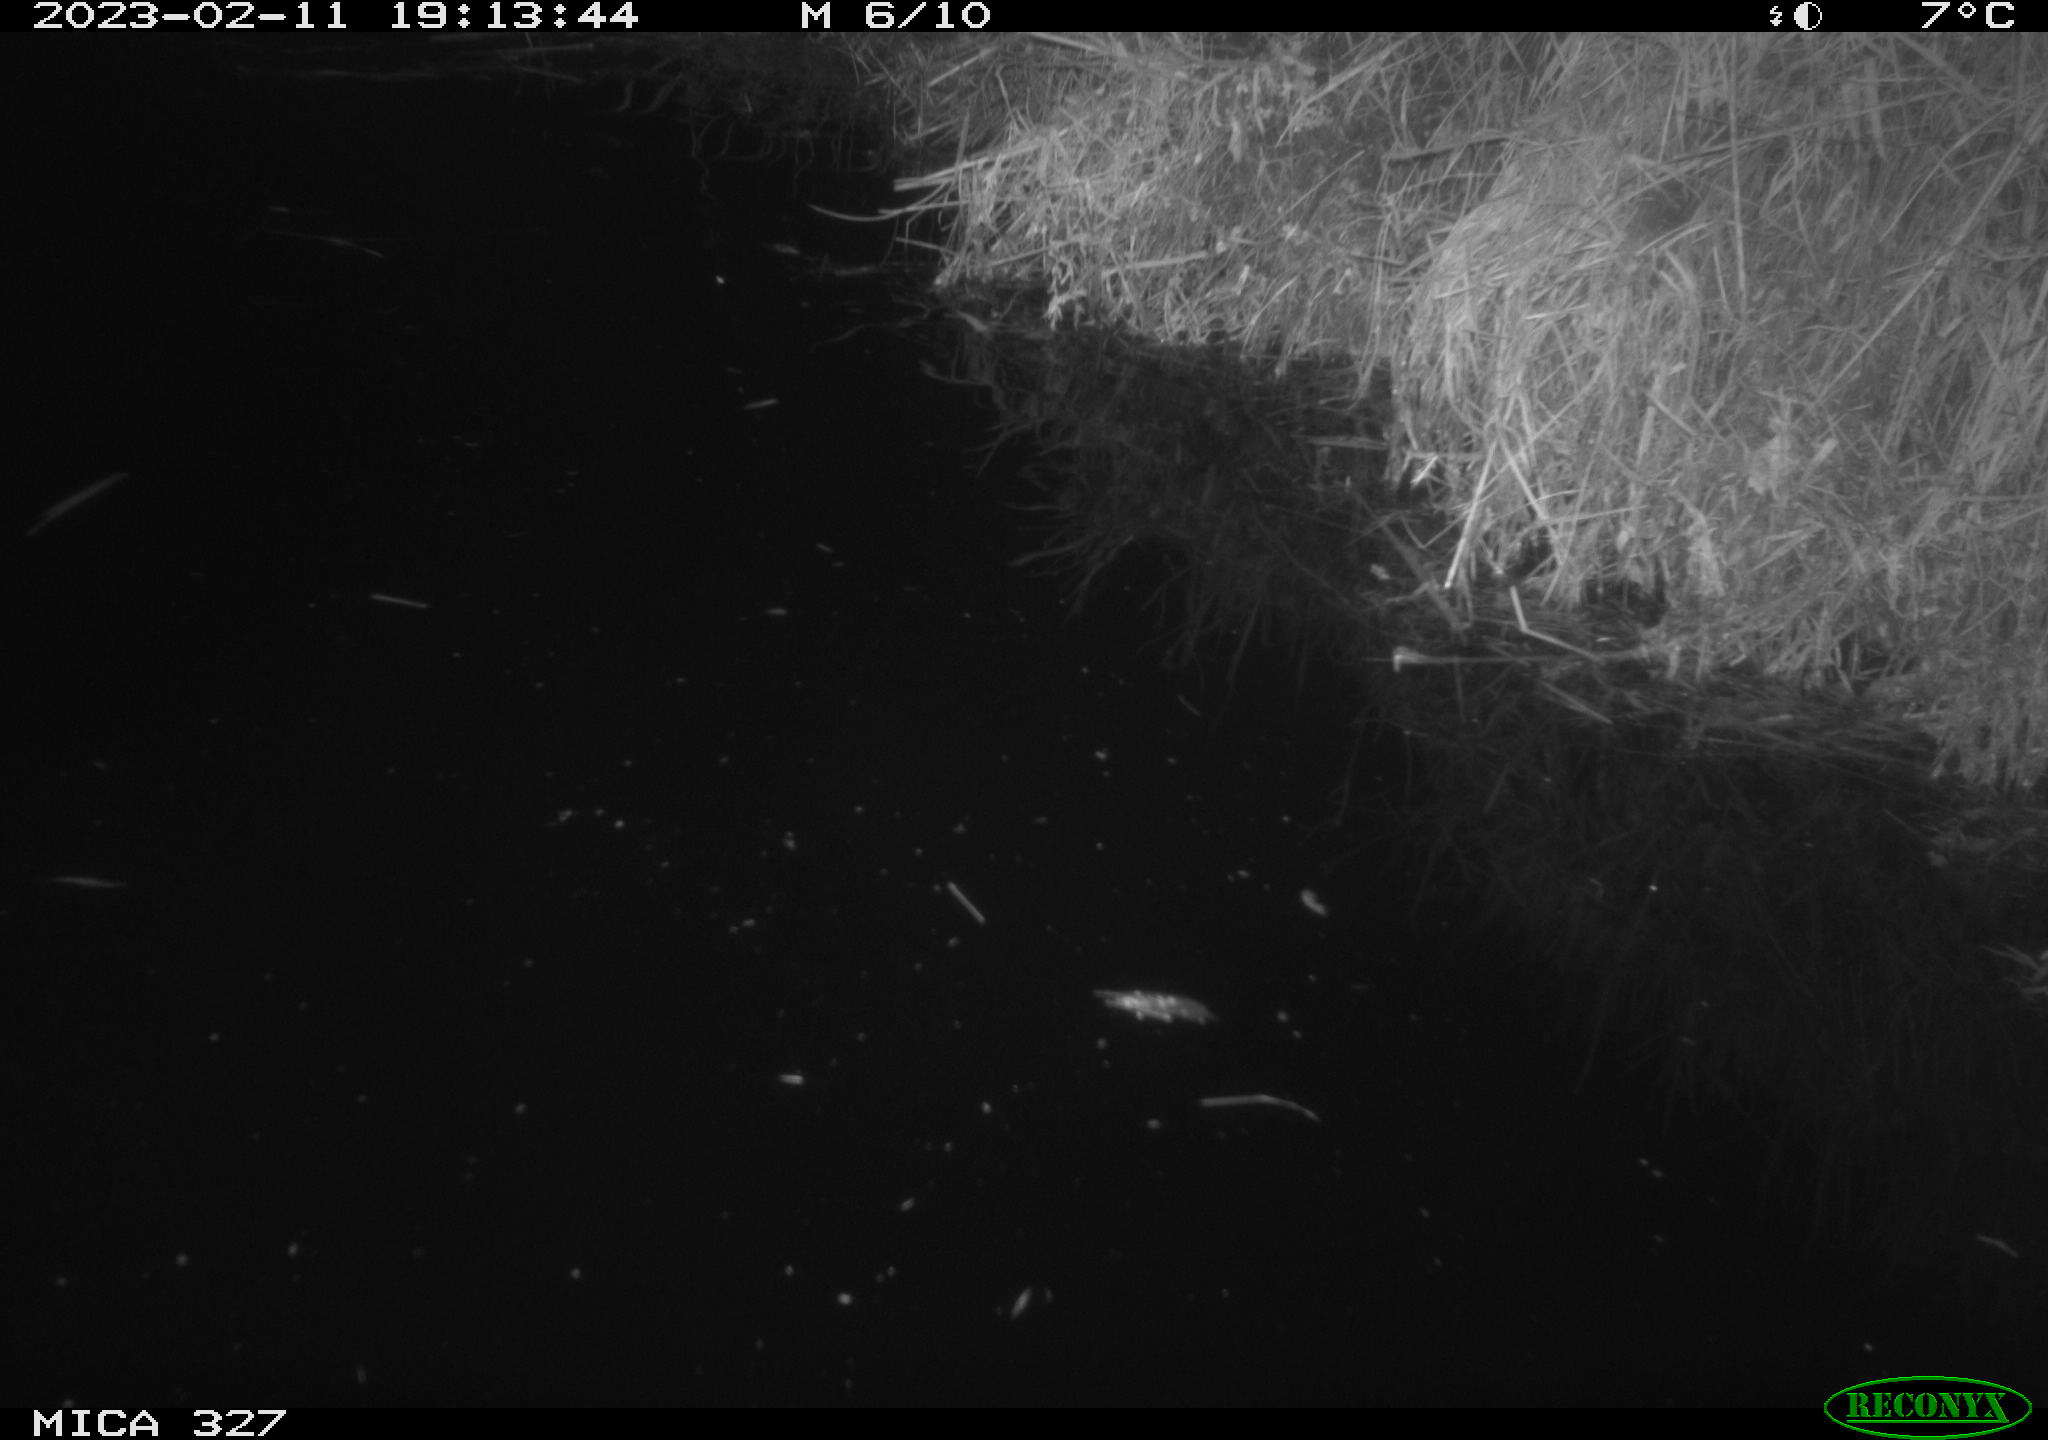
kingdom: Animalia
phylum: Chordata
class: Mammalia
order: Rodentia
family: Cricetidae
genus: Ondatra
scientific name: Ondatra zibethicus
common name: Muskrat
